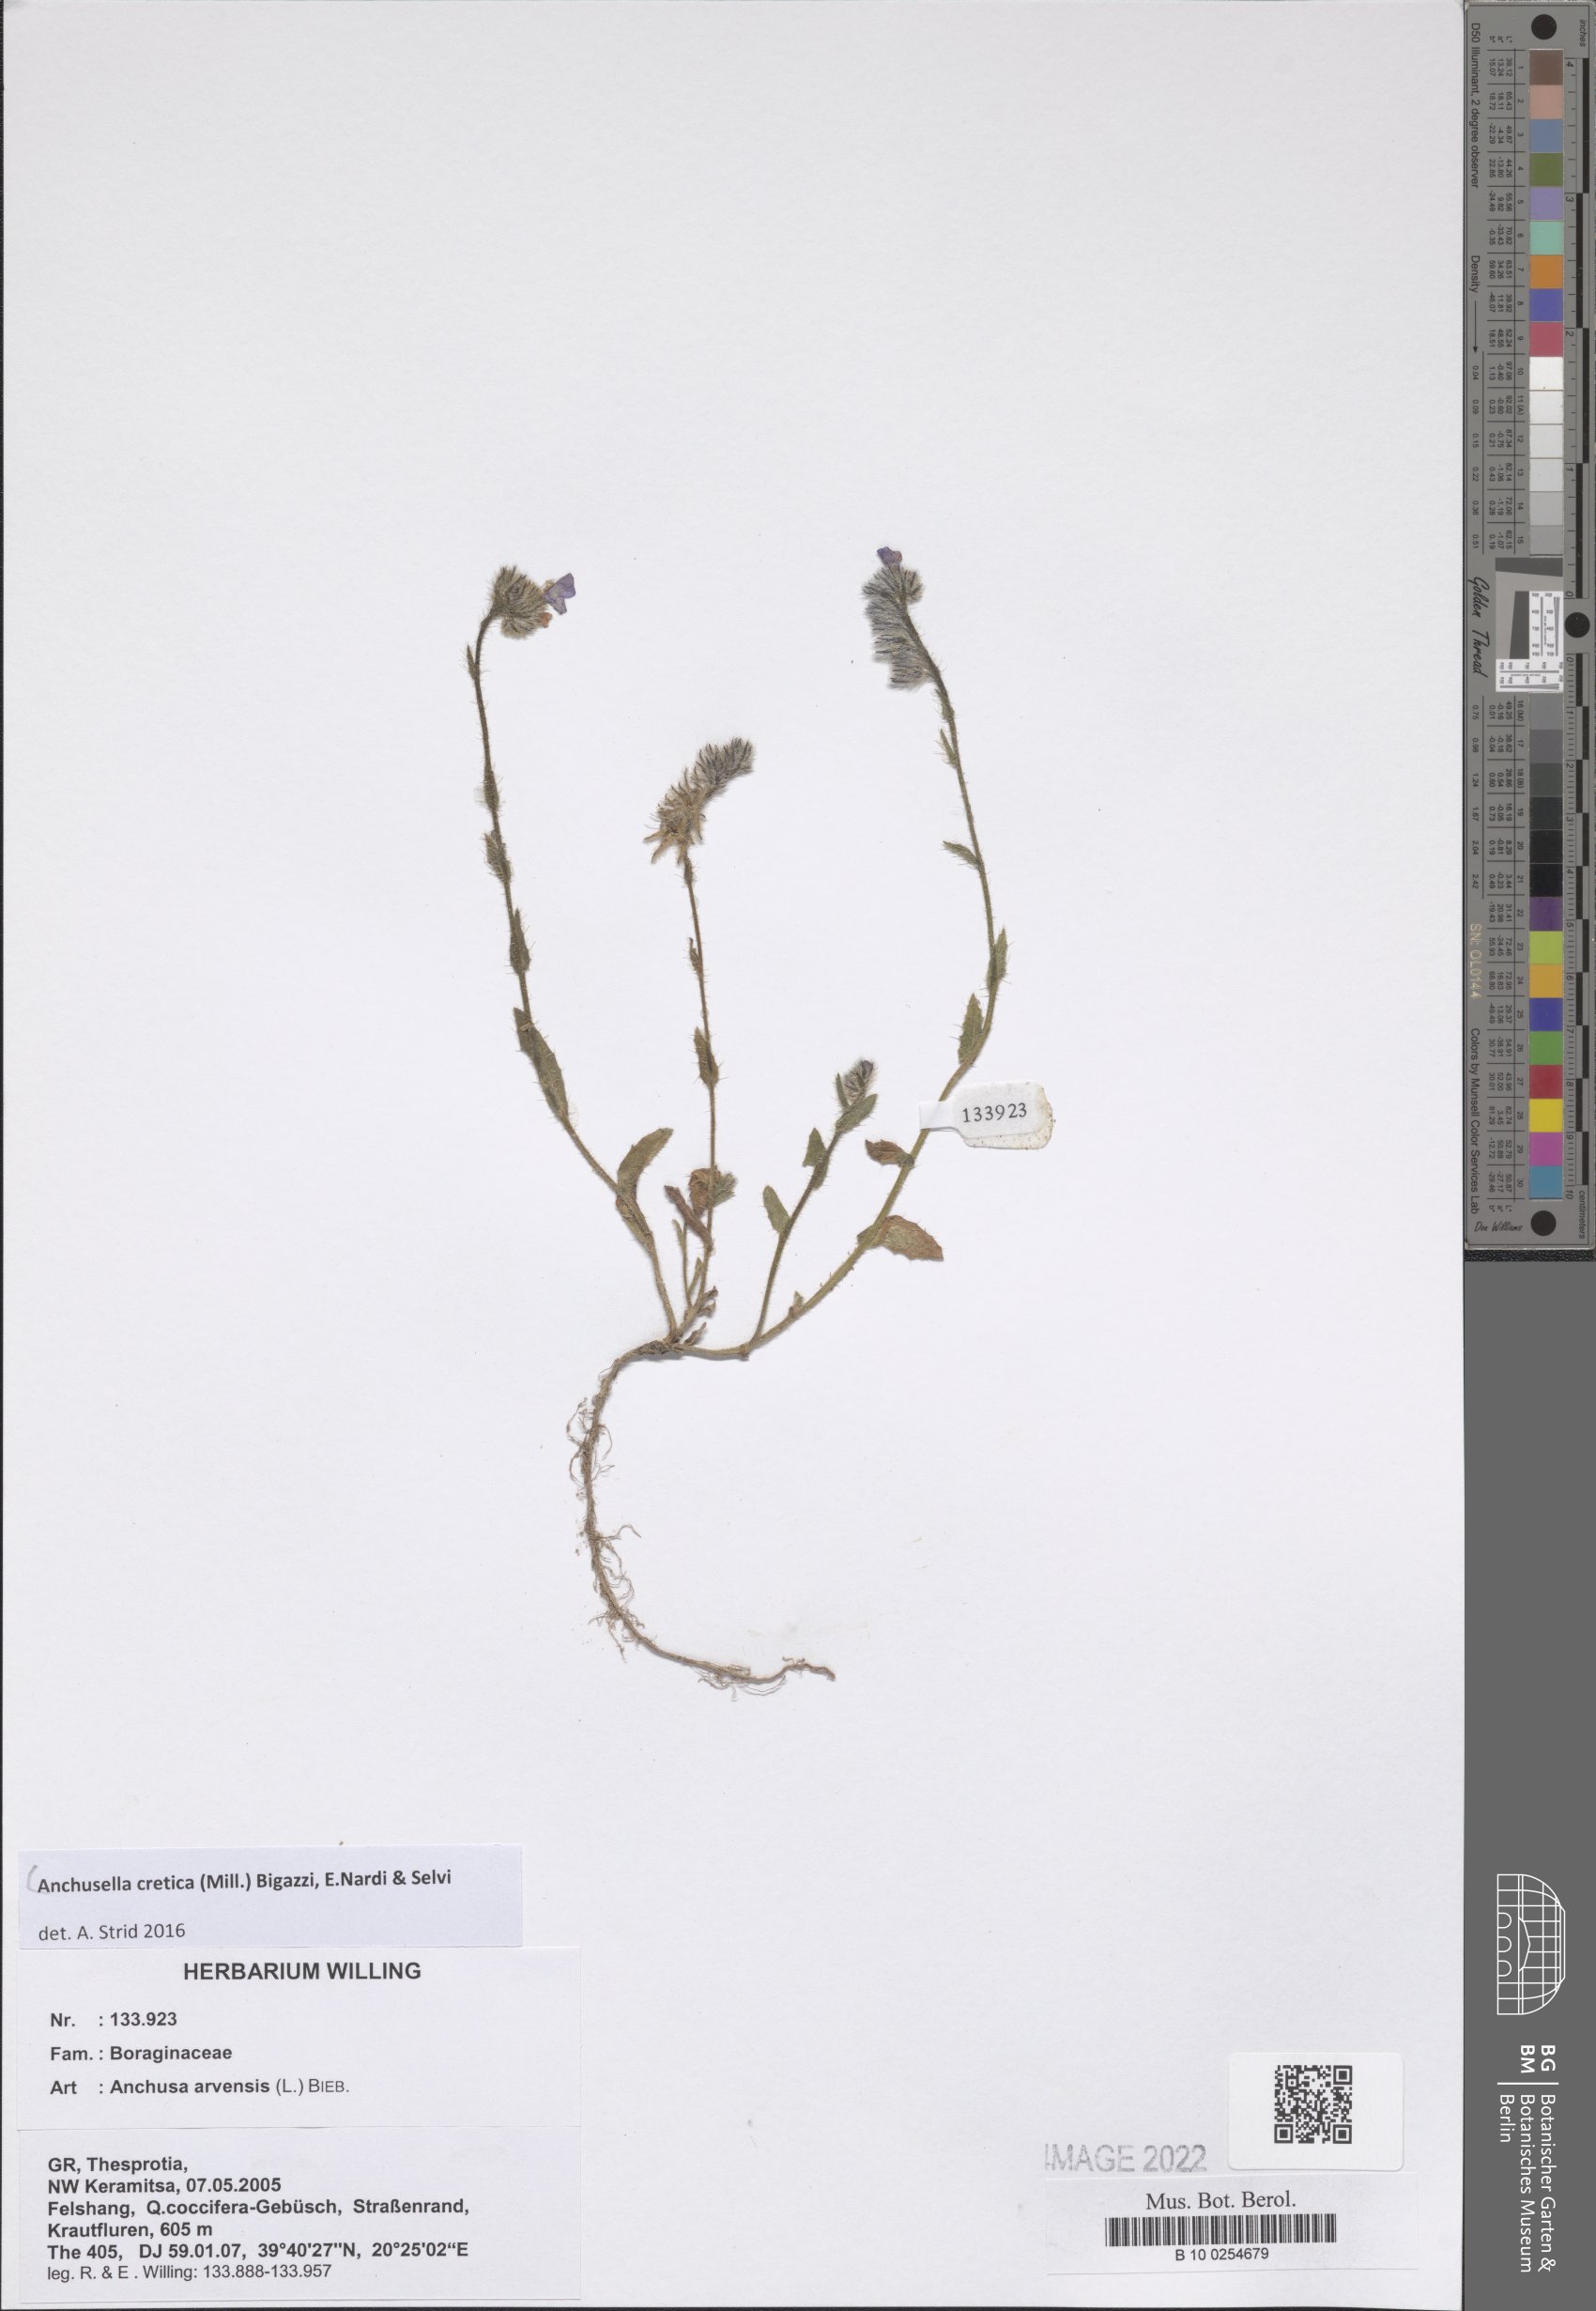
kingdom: Plantae
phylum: Tracheophyta
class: Magnoliopsida
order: Boraginales
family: Boraginaceae
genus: Anchusella
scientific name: Anchusella cretica
